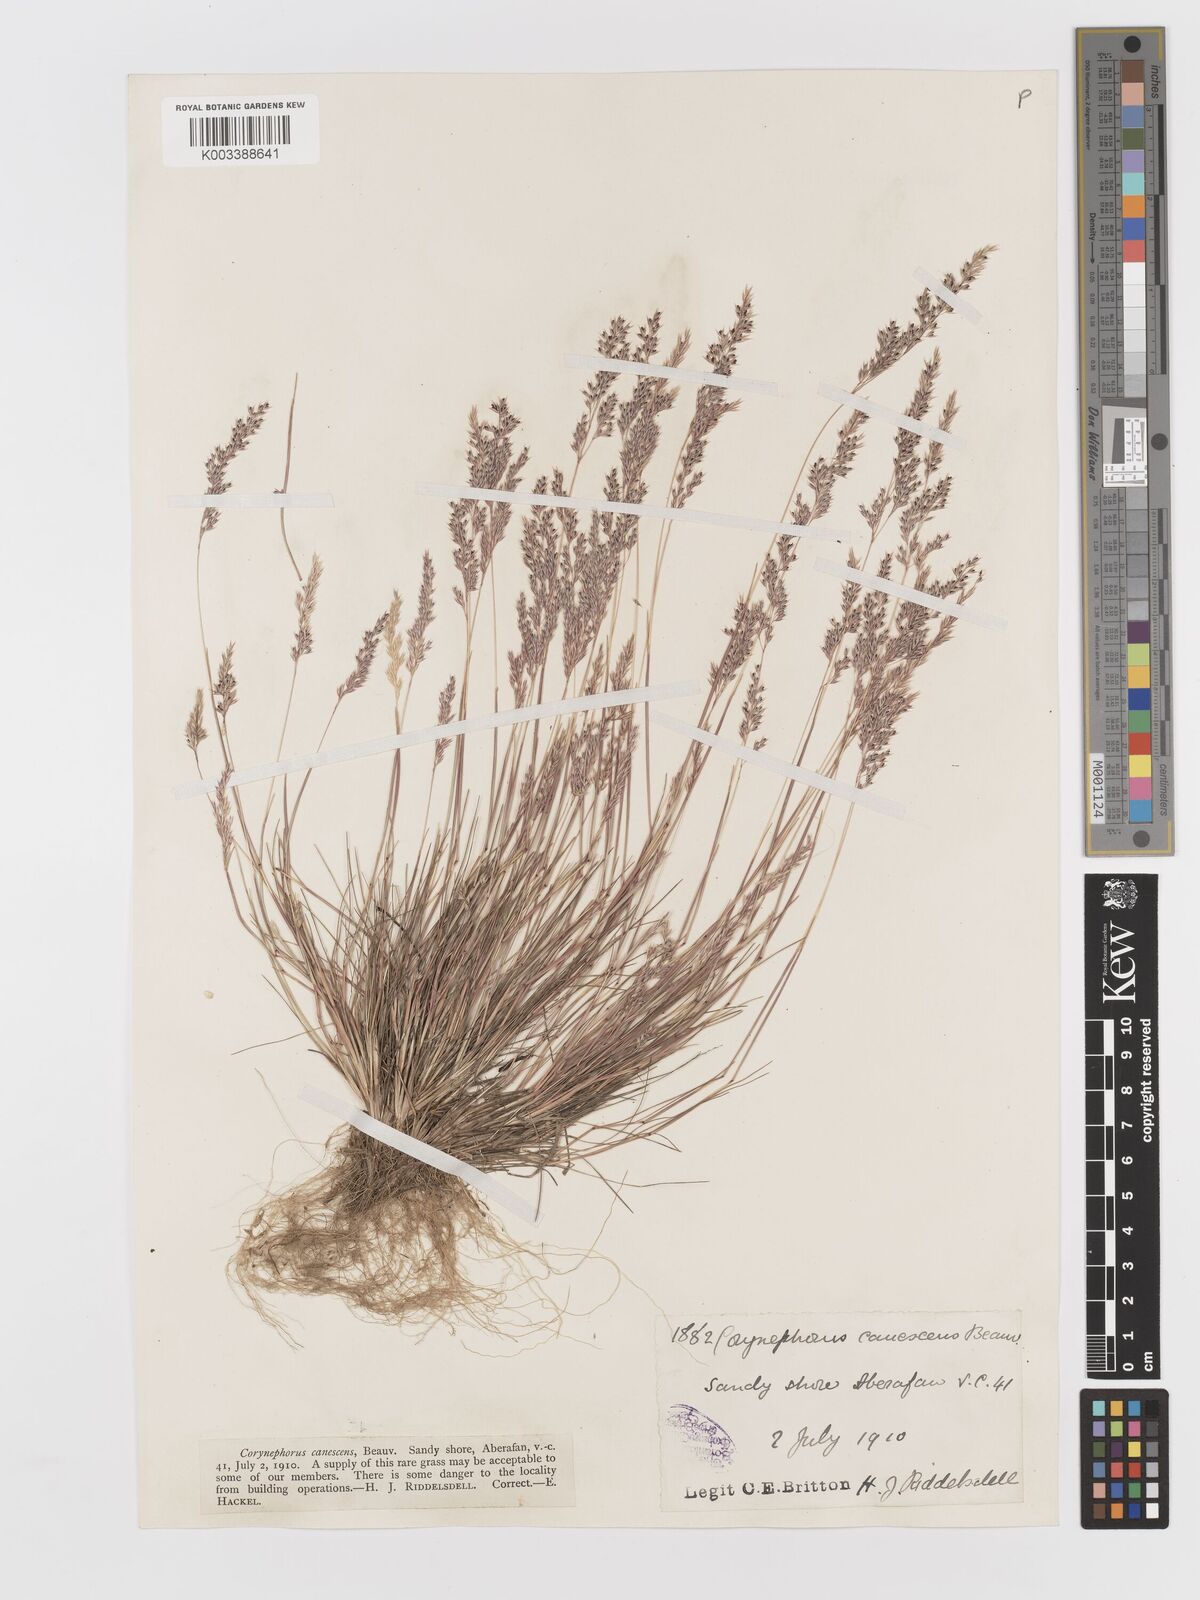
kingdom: Plantae
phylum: Tracheophyta
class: Liliopsida
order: Poales
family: Poaceae
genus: Corynephorus
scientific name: Corynephorus canescens
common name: Grey hair-grass
